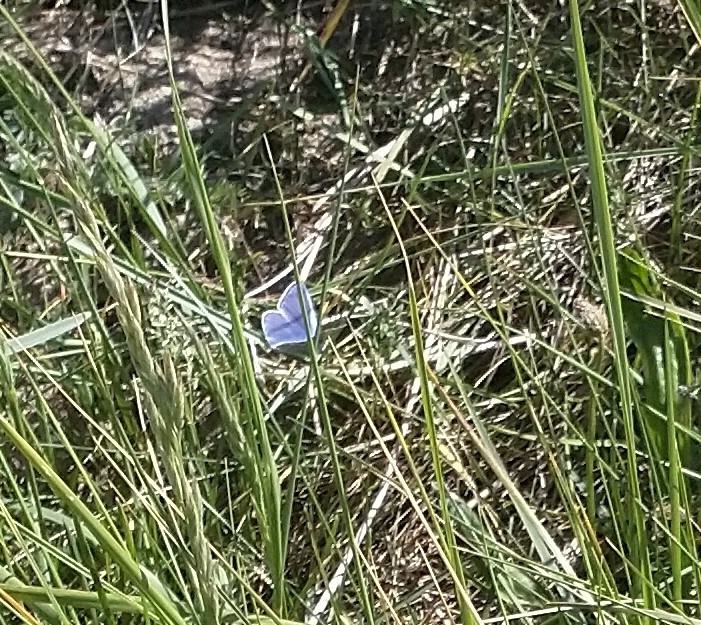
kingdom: Animalia
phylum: Arthropoda
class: Insecta
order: Lepidoptera
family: Lycaenidae
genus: Polyommatus
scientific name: Polyommatus icarus
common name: Almindelig blåfugl
